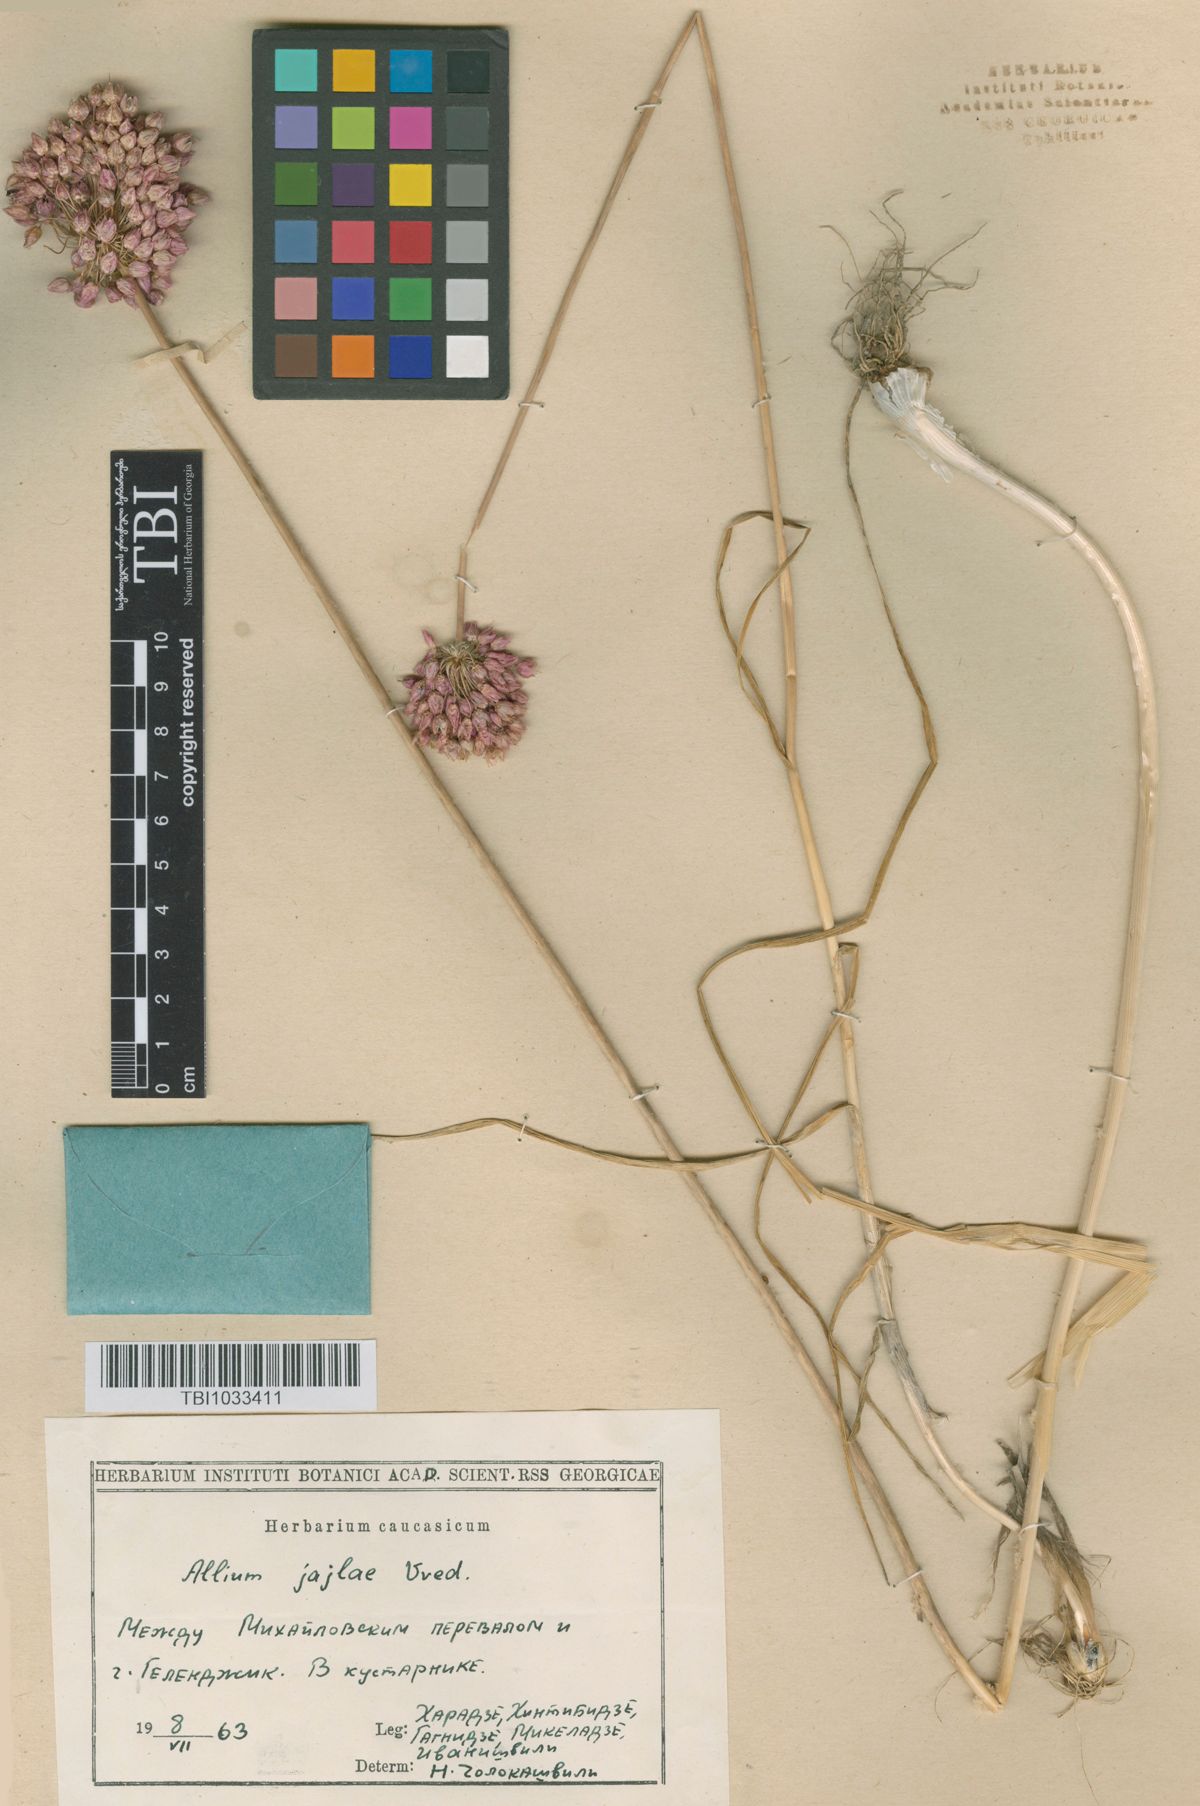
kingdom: Plantae
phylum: Tracheophyta
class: Liliopsida
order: Asparagales
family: Amaryllidaceae
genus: Allium
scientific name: Allium rotundum
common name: Sand leek
